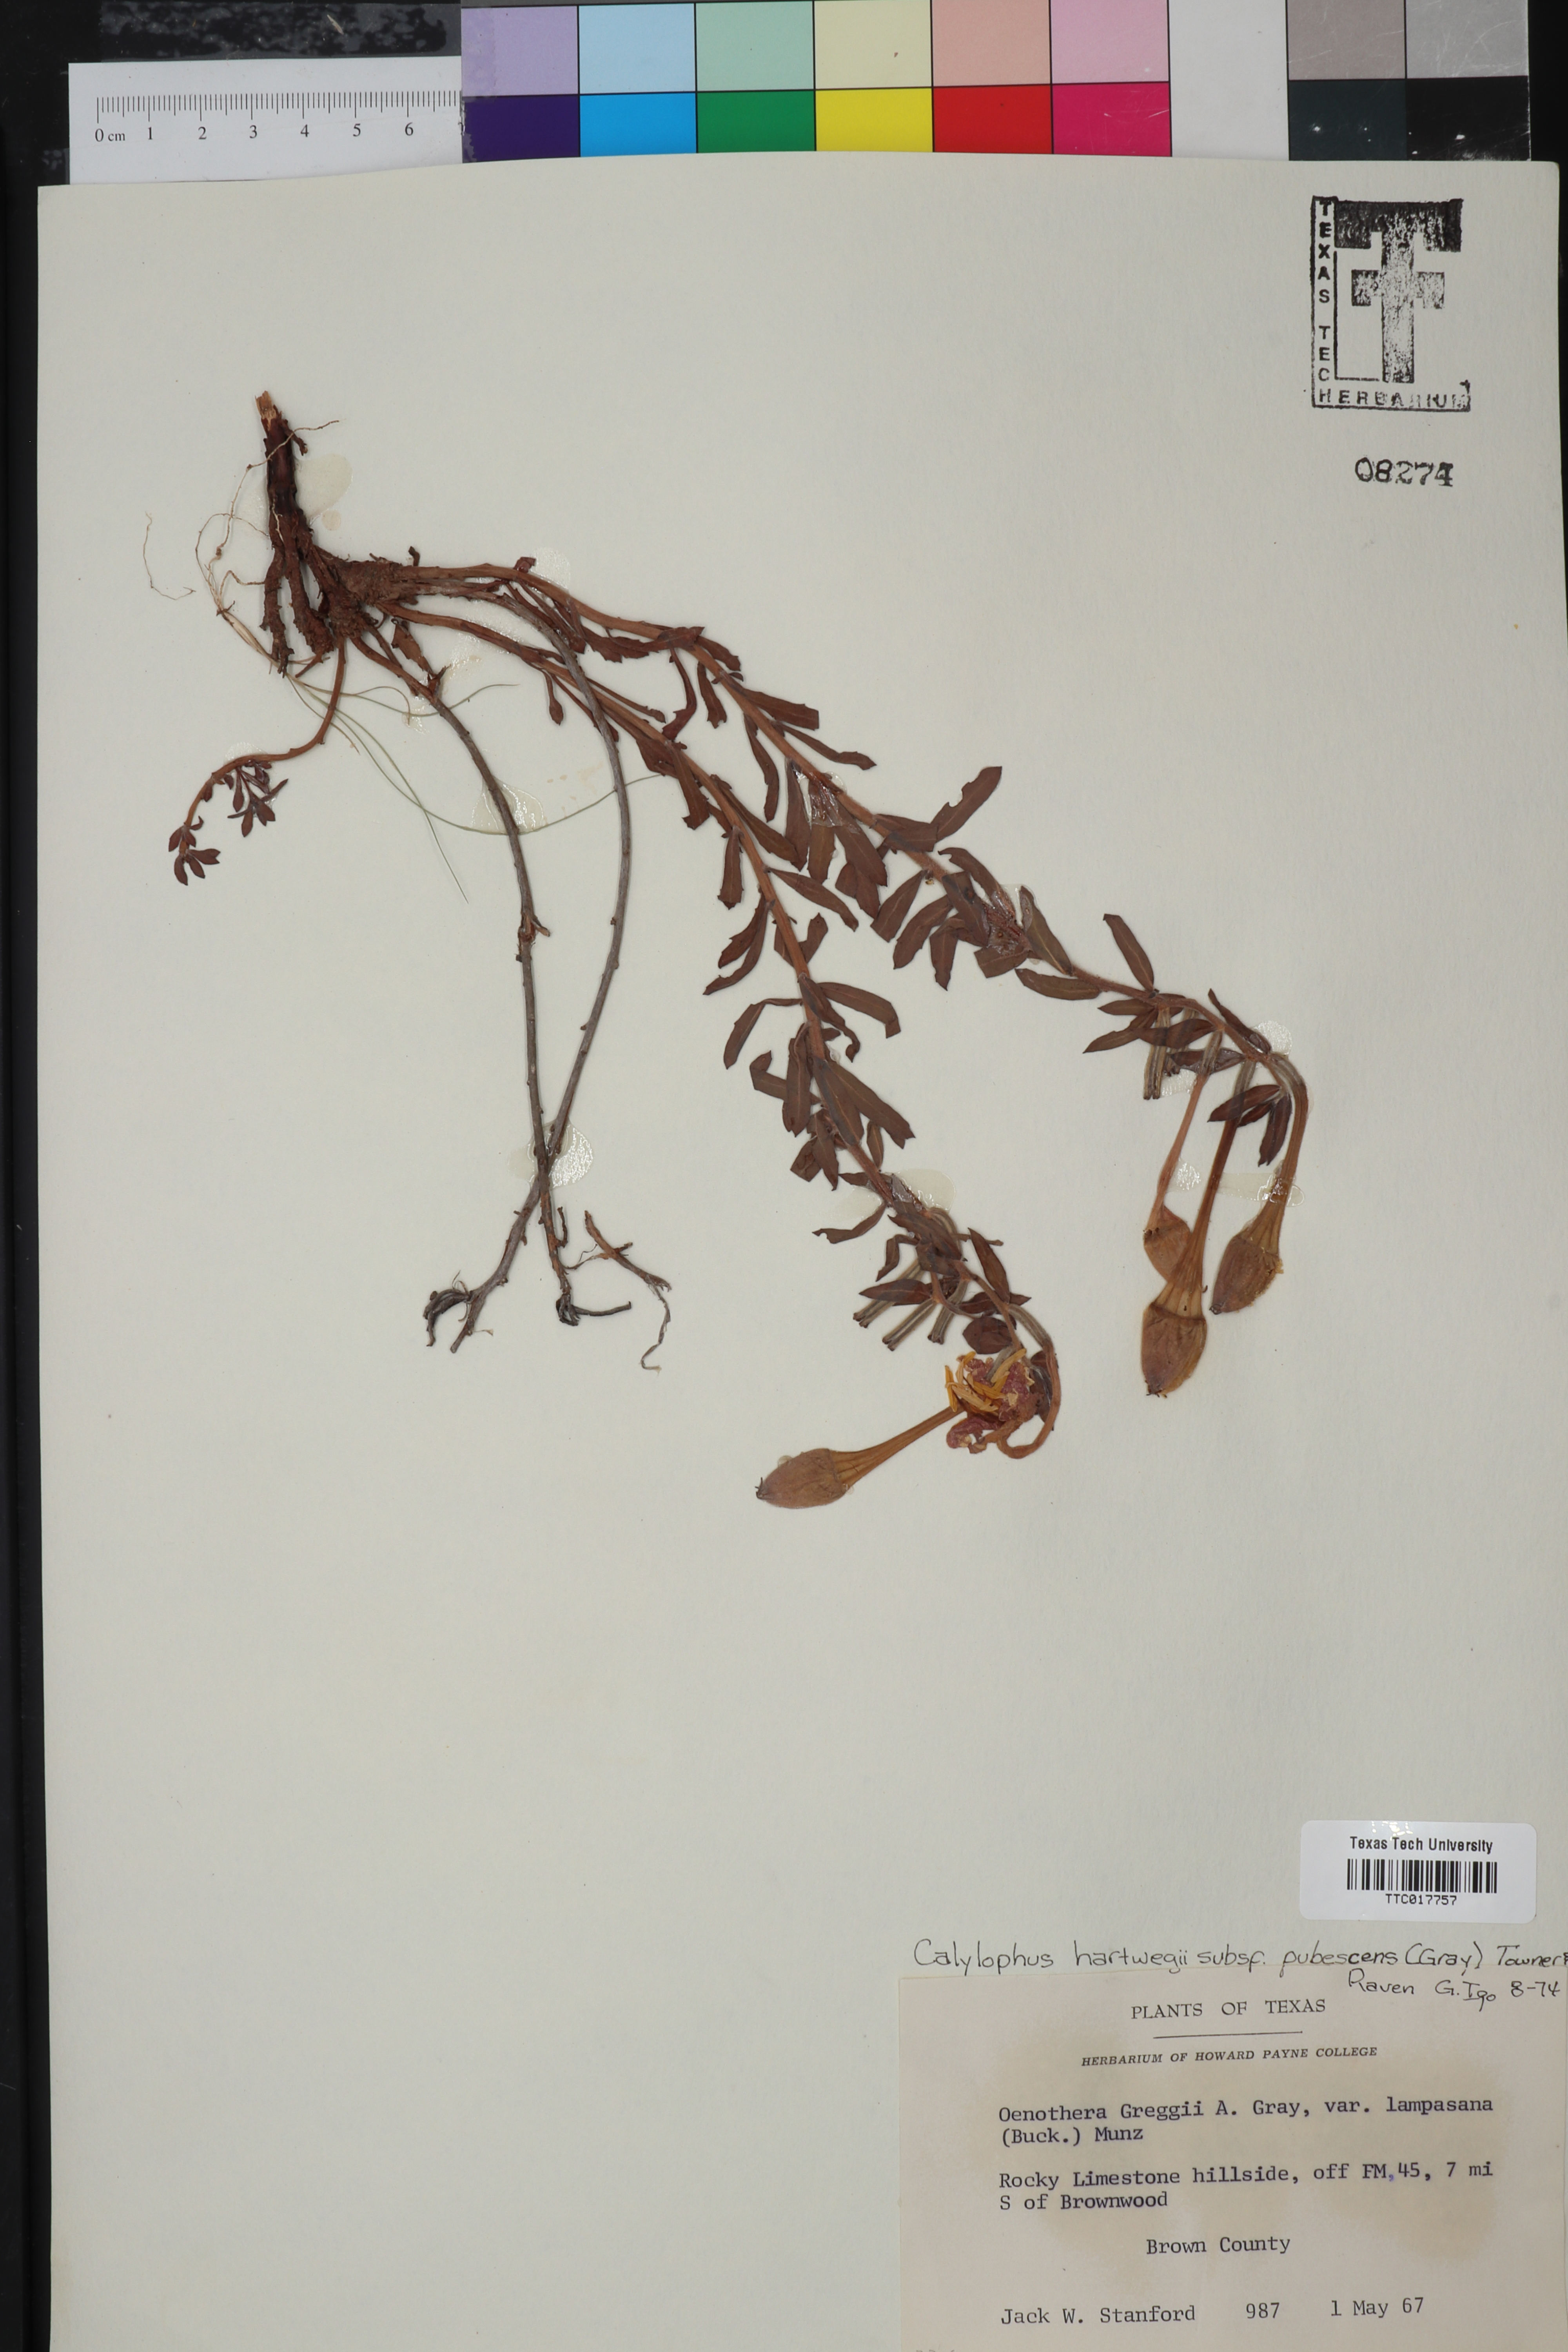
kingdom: Plantae
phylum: Tracheophyta
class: Magnoliopsida
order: Myrtales
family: Onagraceae
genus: Oenothera
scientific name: Oenothera hartwegii
